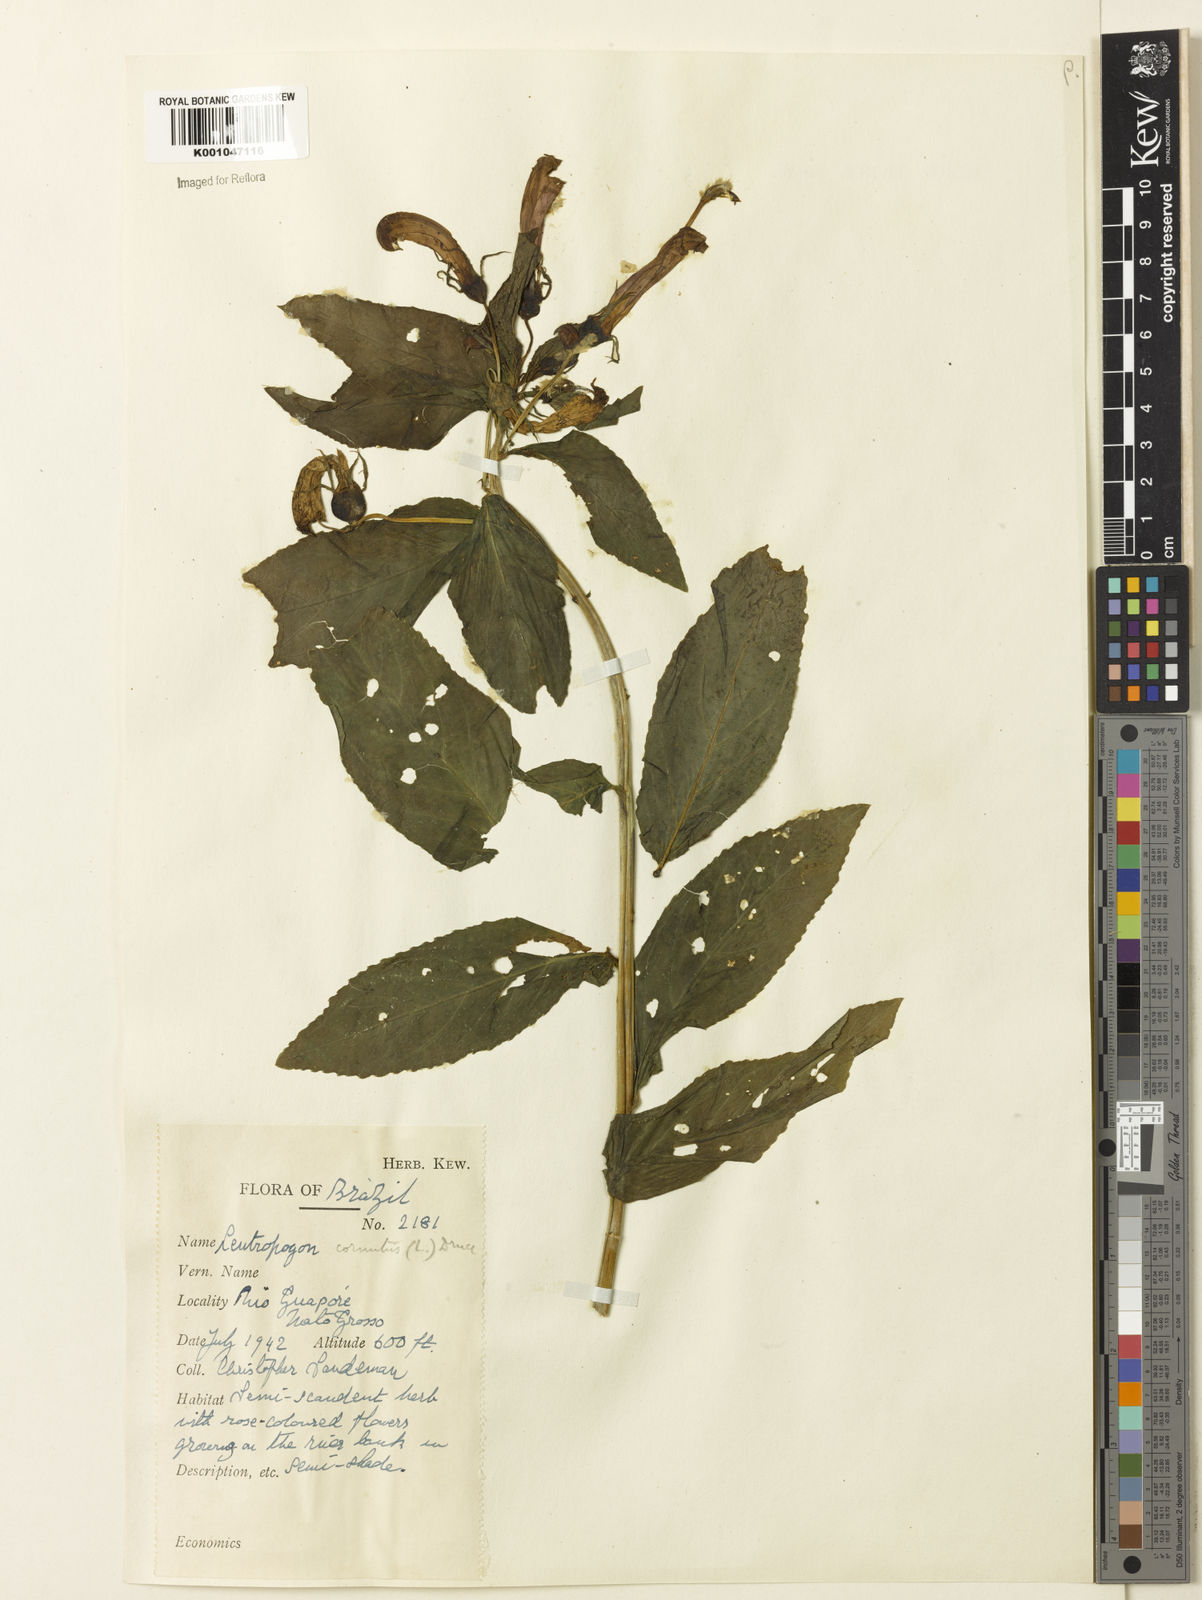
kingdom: Plantae
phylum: Tracheophyta
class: Magnoliopsida
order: Asterales
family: Campanulaceae
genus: Centropogon
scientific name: Centropogon cornutus
